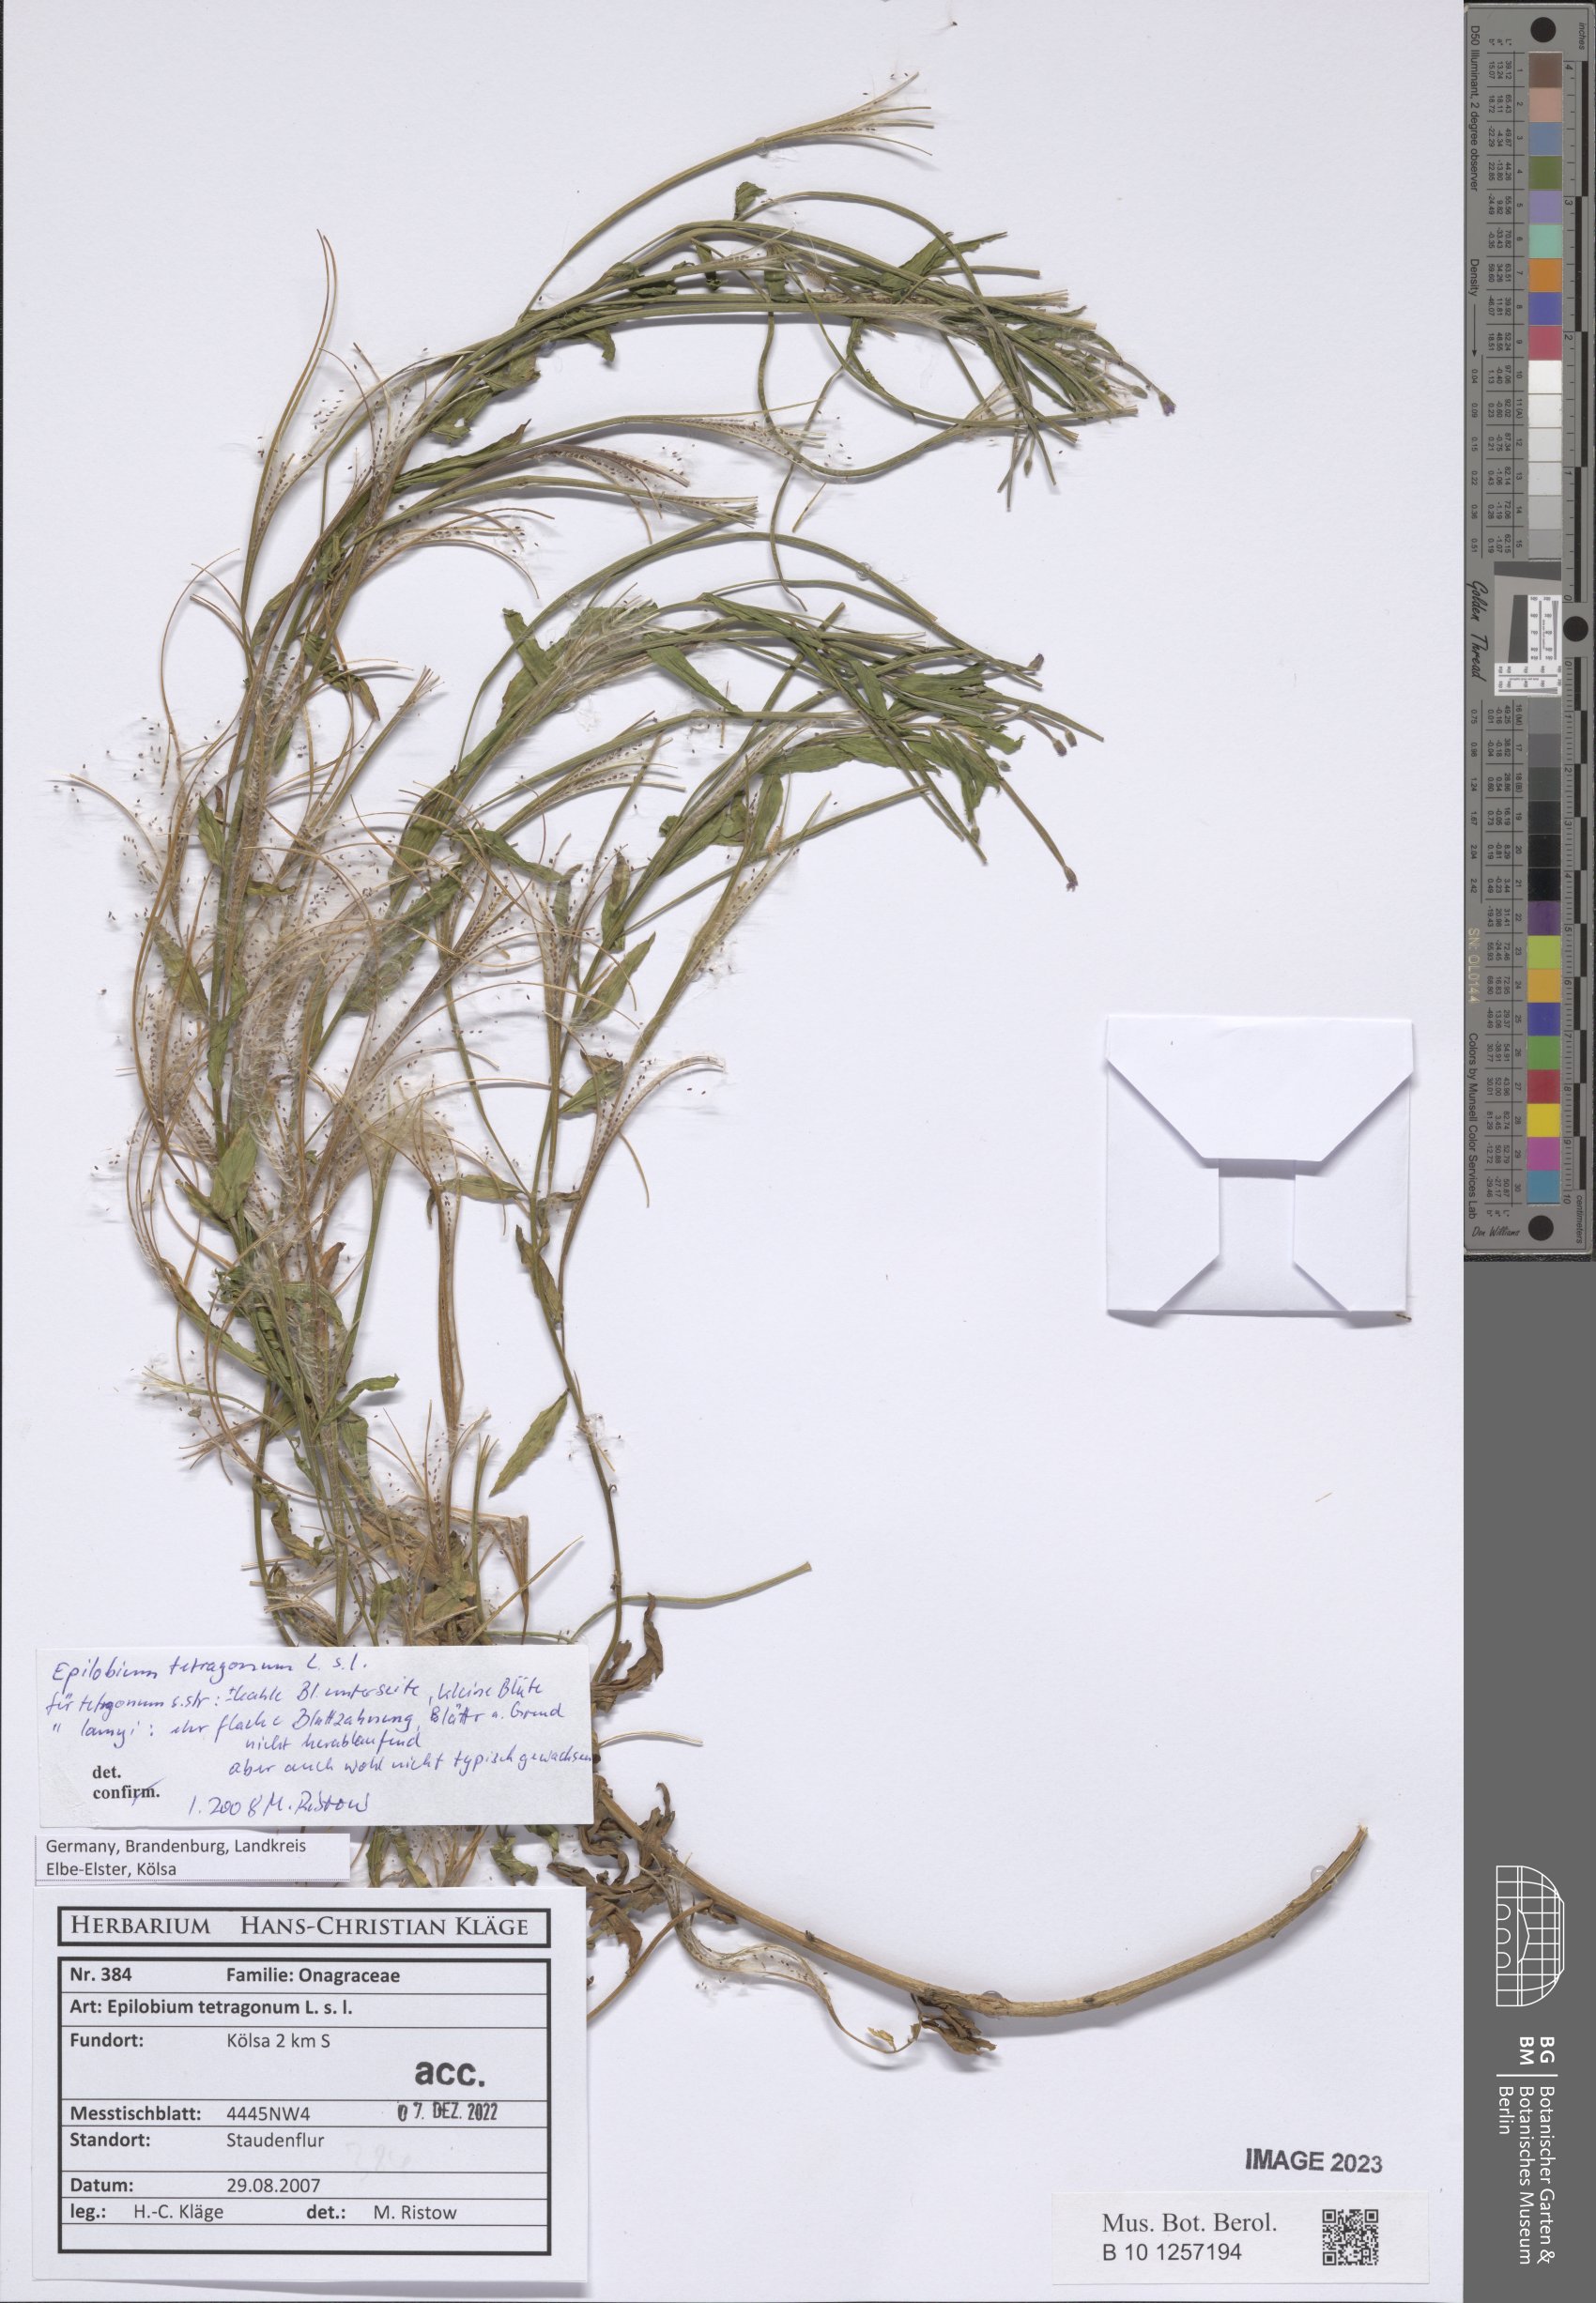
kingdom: Plantae
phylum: Tracheophyta
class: Magnoliopsida
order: Myrtales
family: Onagraceae
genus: Epilobium
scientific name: Epilobium tetragonum
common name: Square-stemmed willowherb
